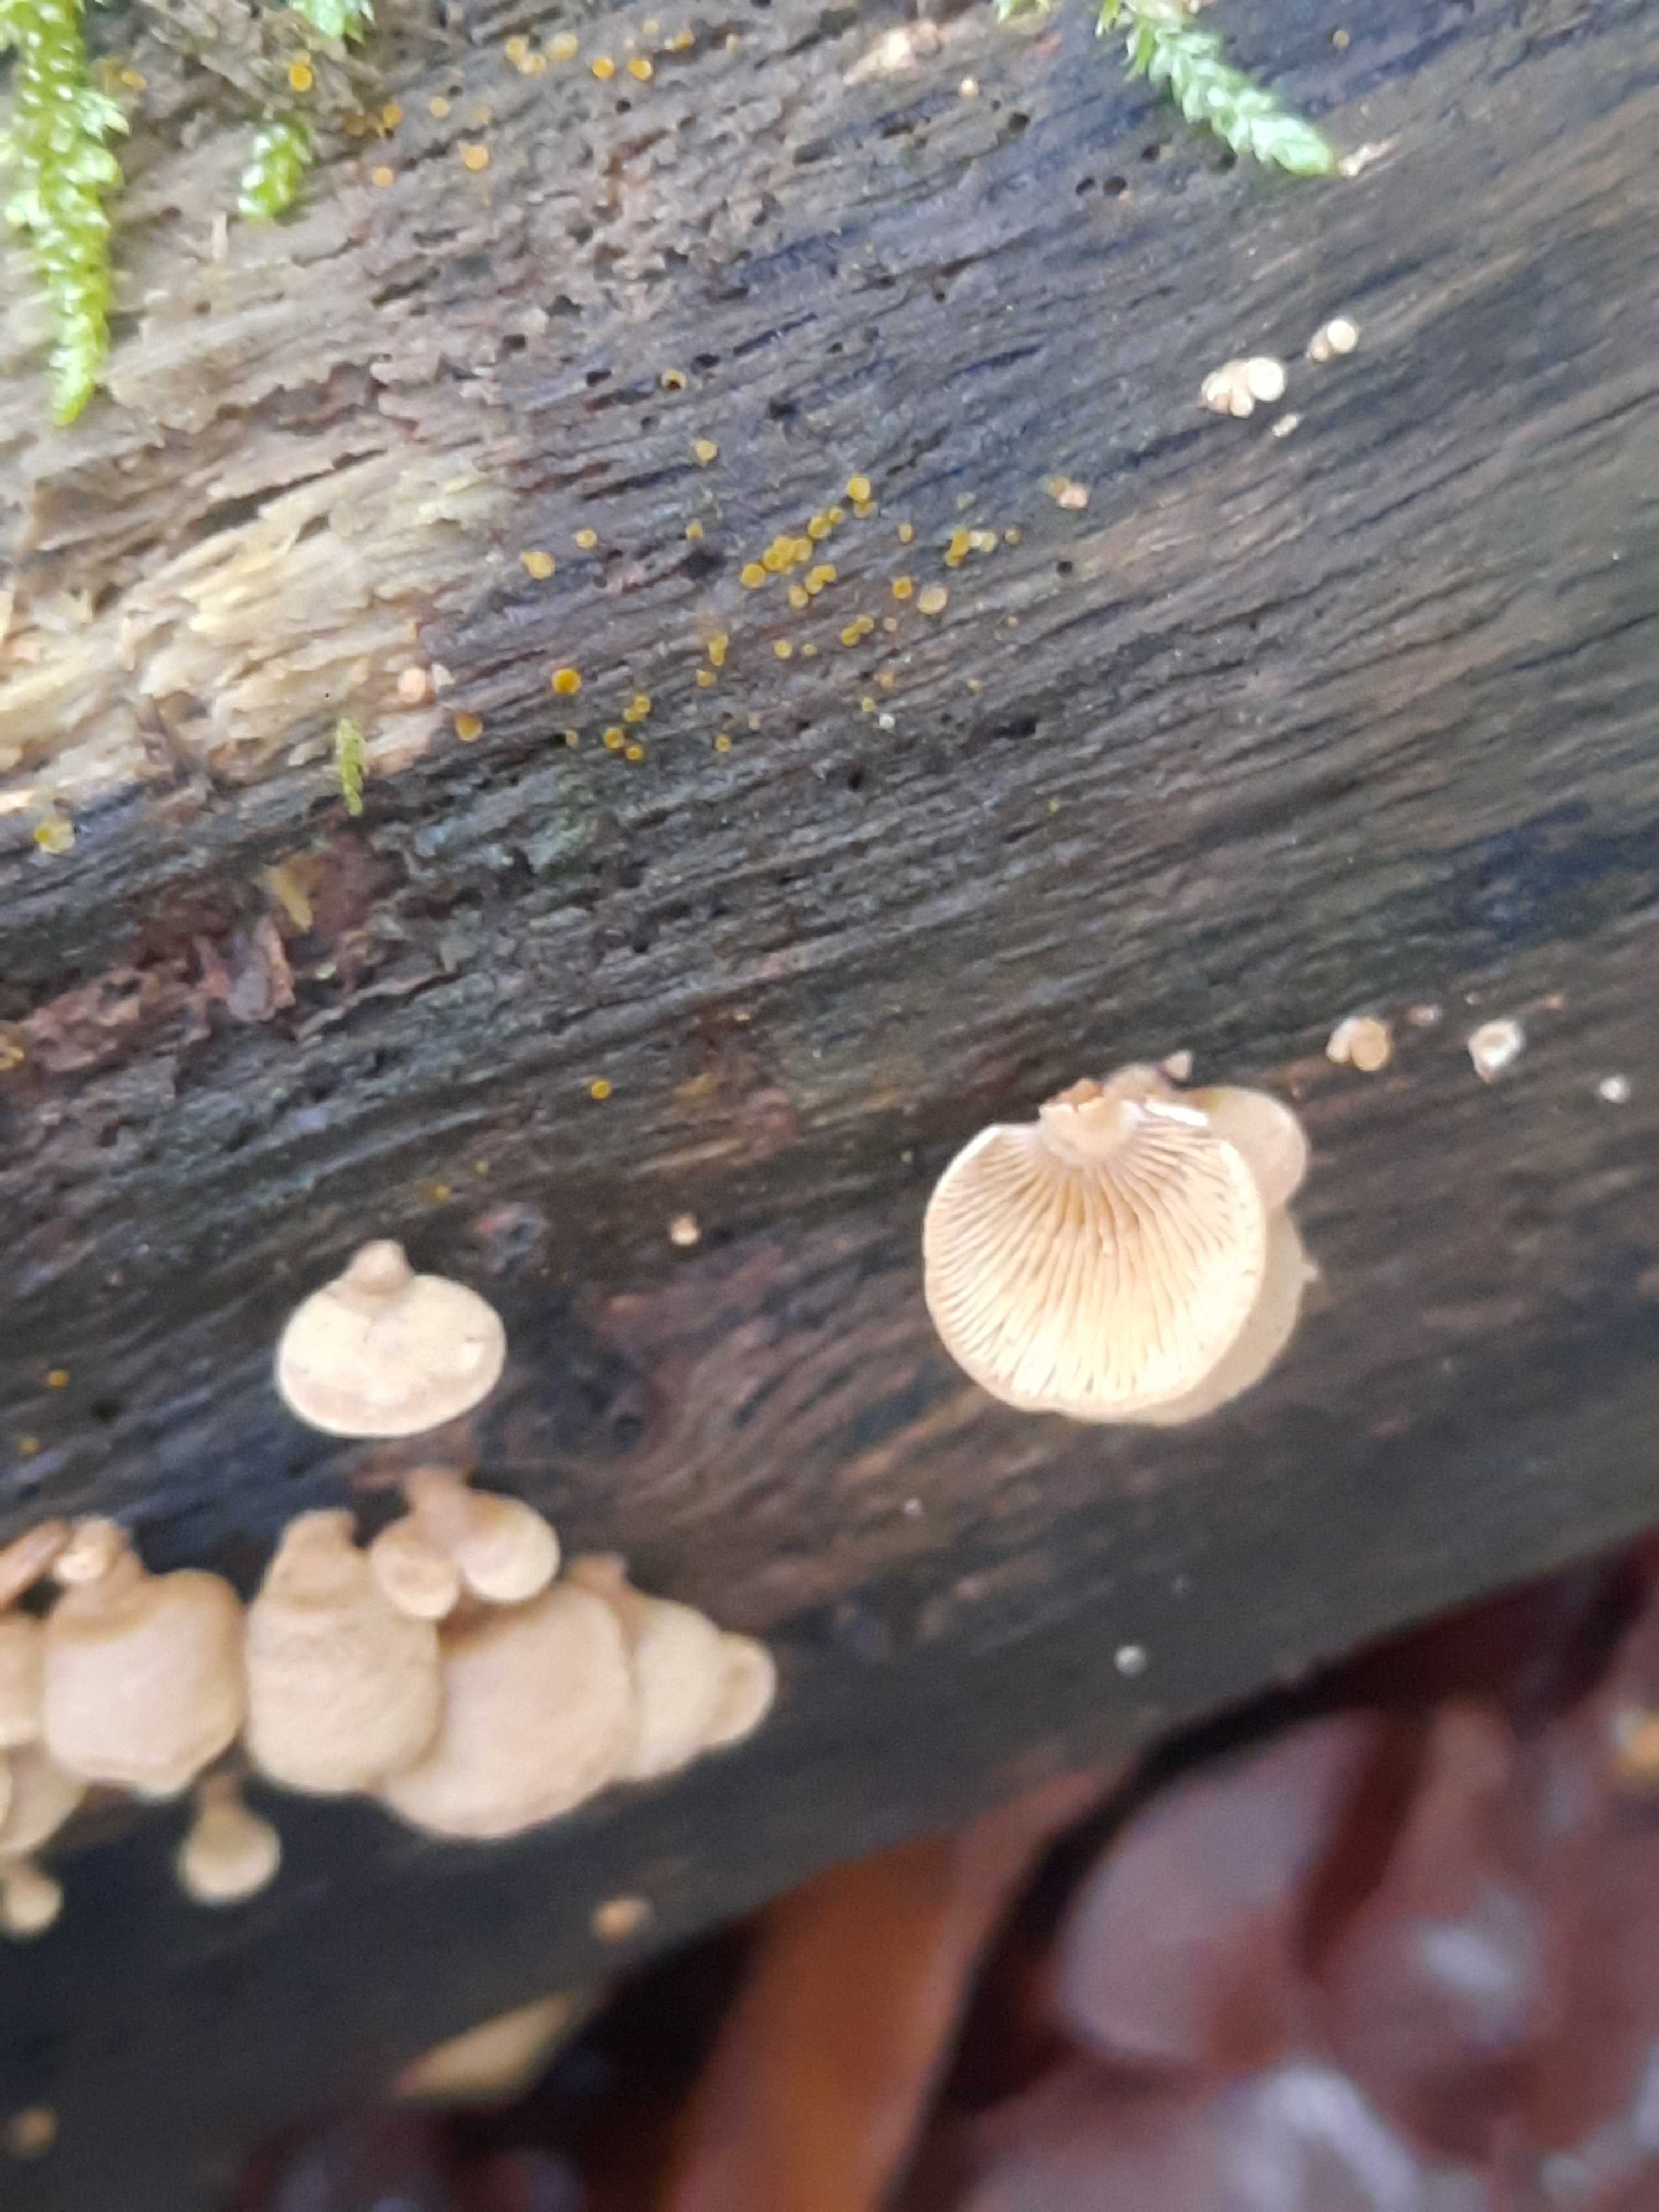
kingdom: Fungi
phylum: Basidiomycota
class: Agaricomycetes
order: Agaricales
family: Mycenaceae
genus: Panellus
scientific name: Panellus stipticus
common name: kliddet epaulethat
